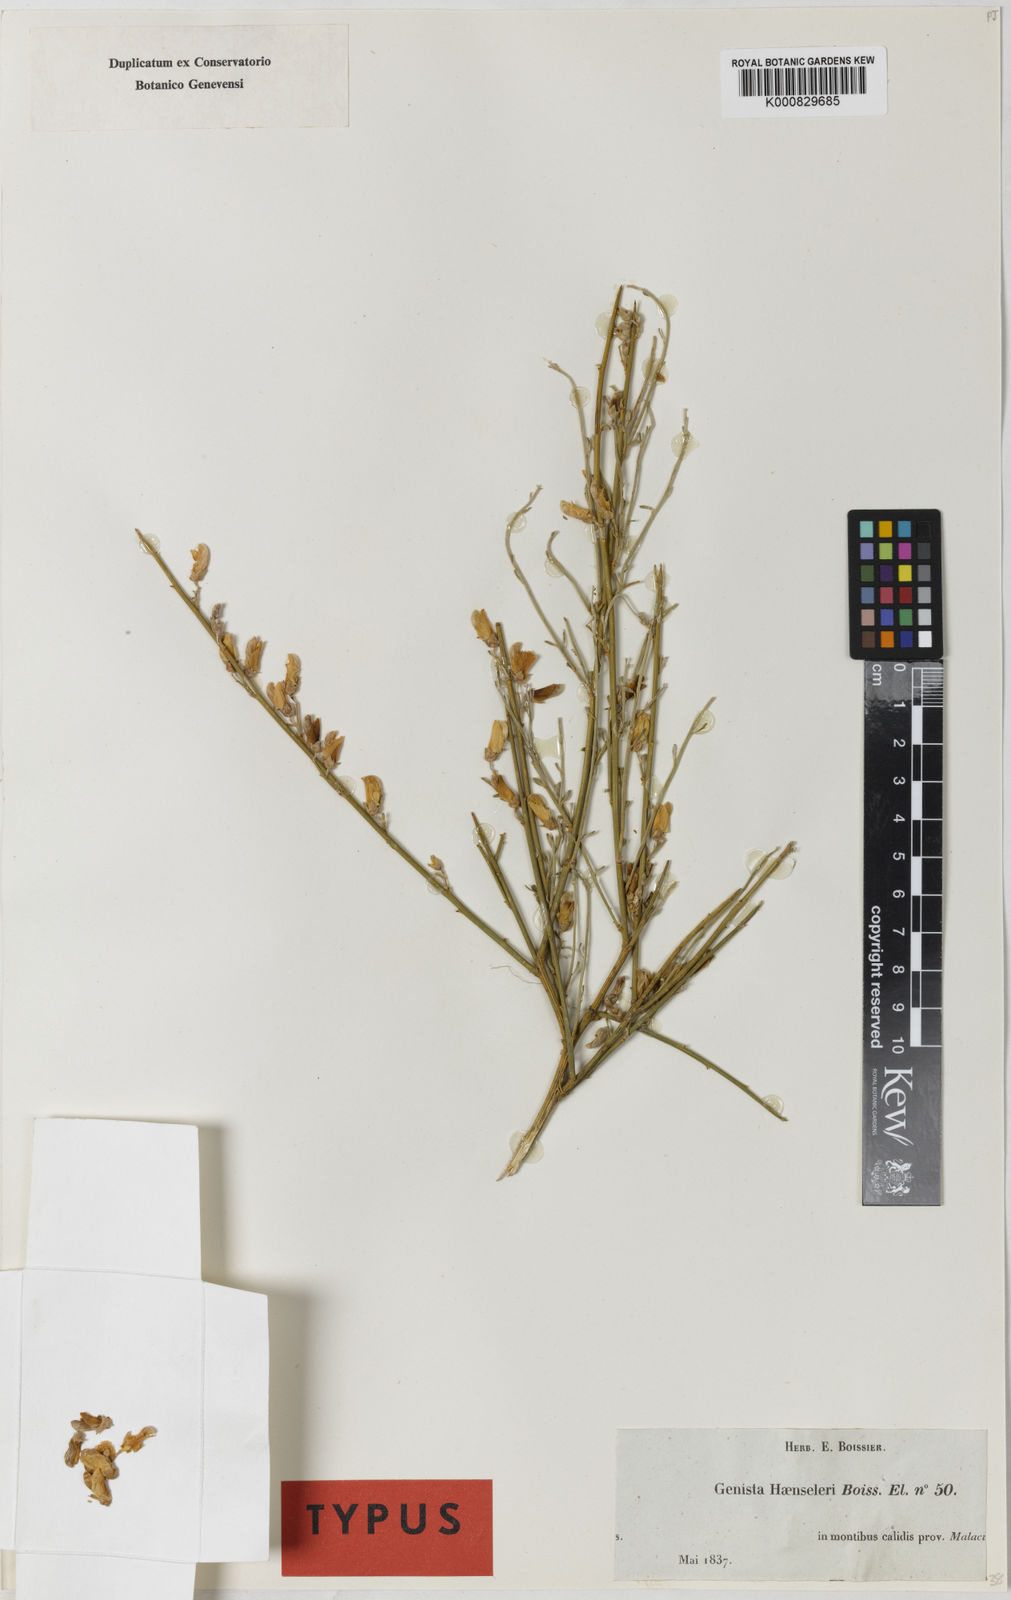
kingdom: Plantae
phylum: Tracheophyta
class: Magnoliopsida
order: Fabales
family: Fabaceae
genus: Genista
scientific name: Genista haensleri
